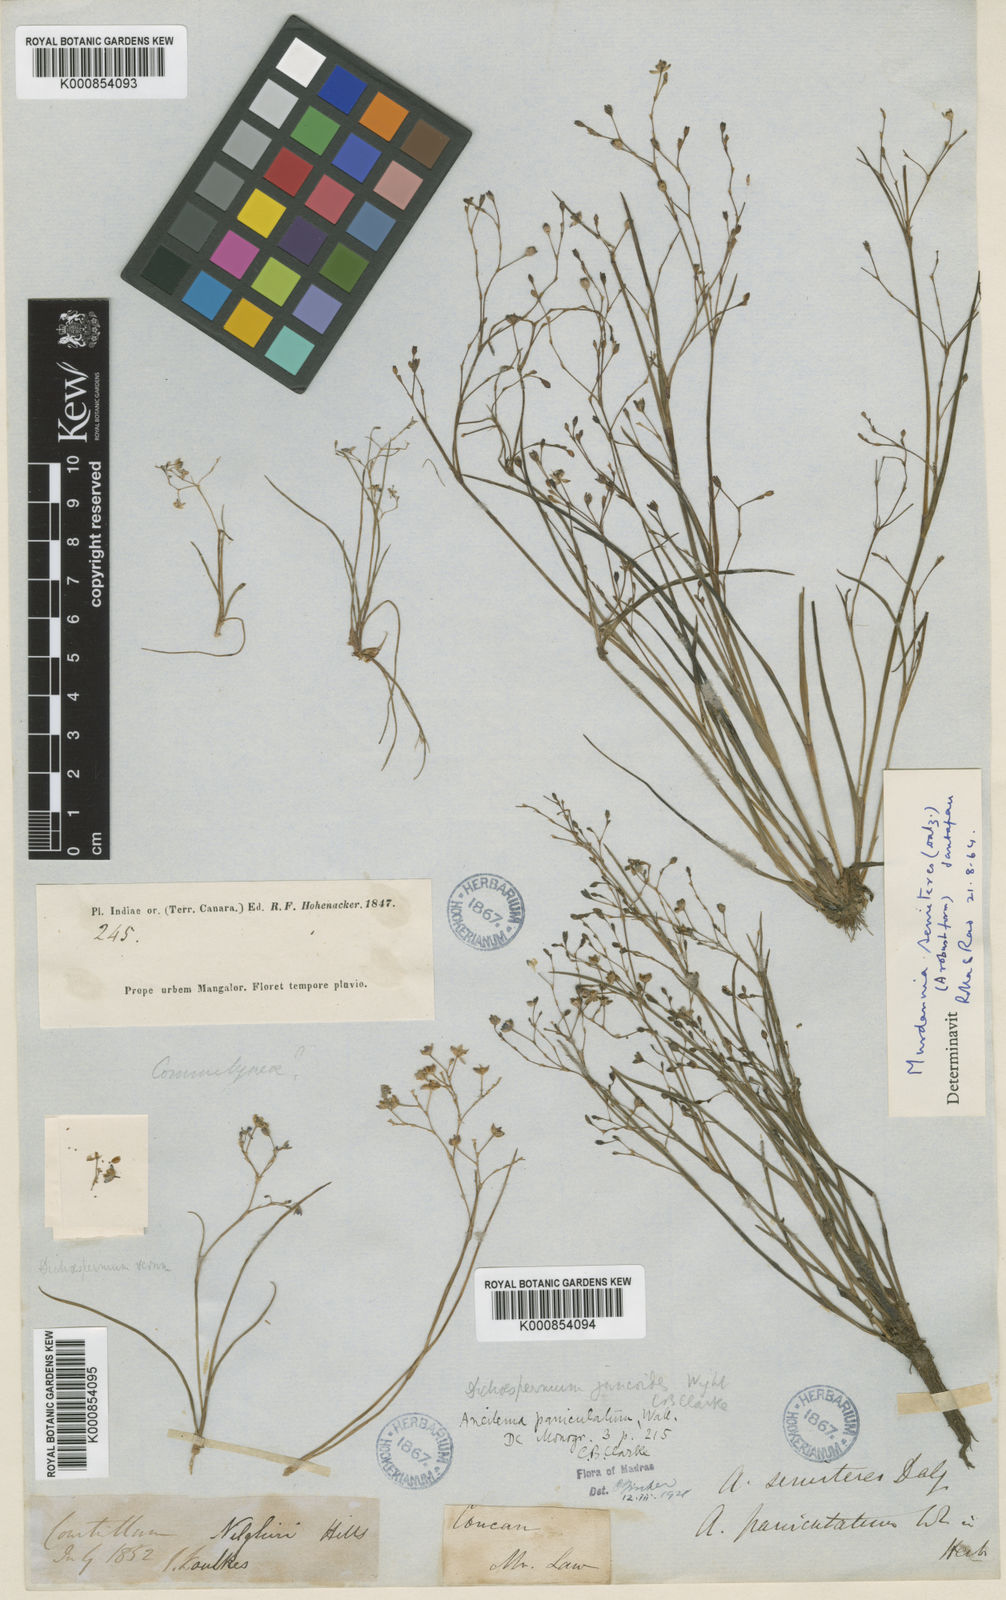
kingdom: Plantae
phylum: Tracheophyta
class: Liliopsida
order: Commelinales
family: Commelinaceae
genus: Murdannia
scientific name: Murdannia semiteres
